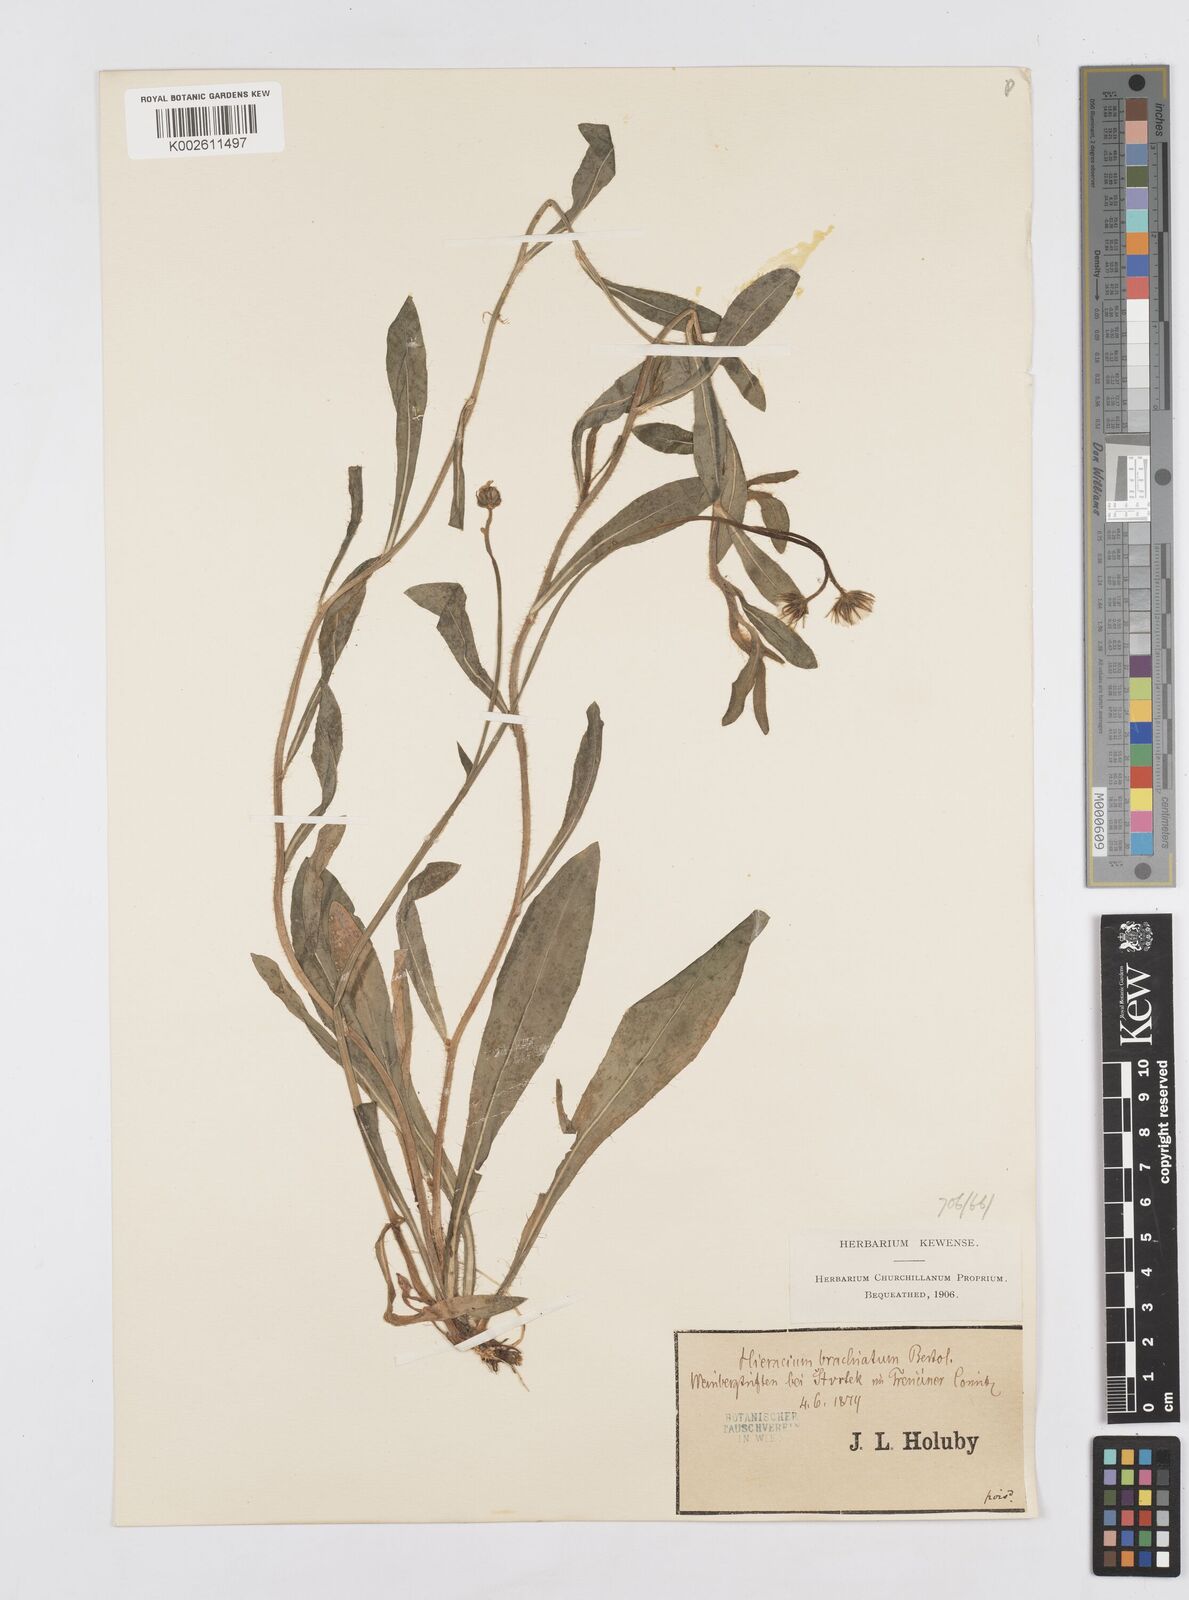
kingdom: Plantae
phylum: Tracheophyta
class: Magnoliopsida
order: Asterales
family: Asteraceae
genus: Pilosella
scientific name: Pilosella acutifolia
